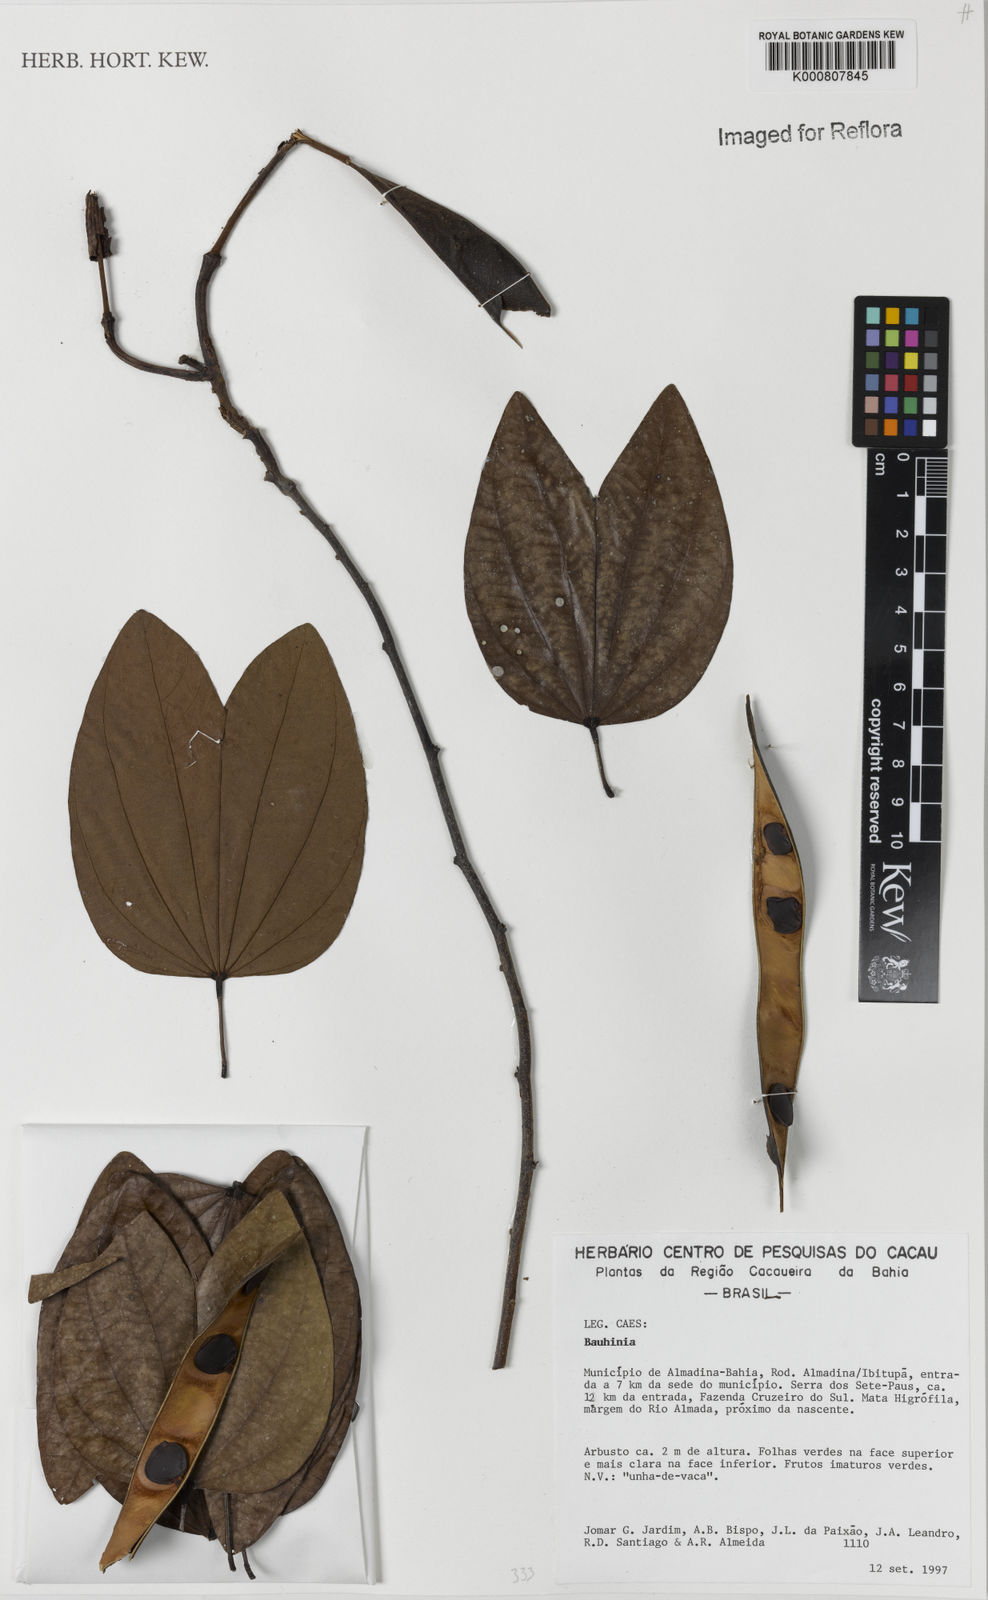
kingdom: Plantae
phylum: Tracheophyta
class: Magnoliopsida
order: Fabales
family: Fabaceae
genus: Bauhinia
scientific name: Bauhinia
